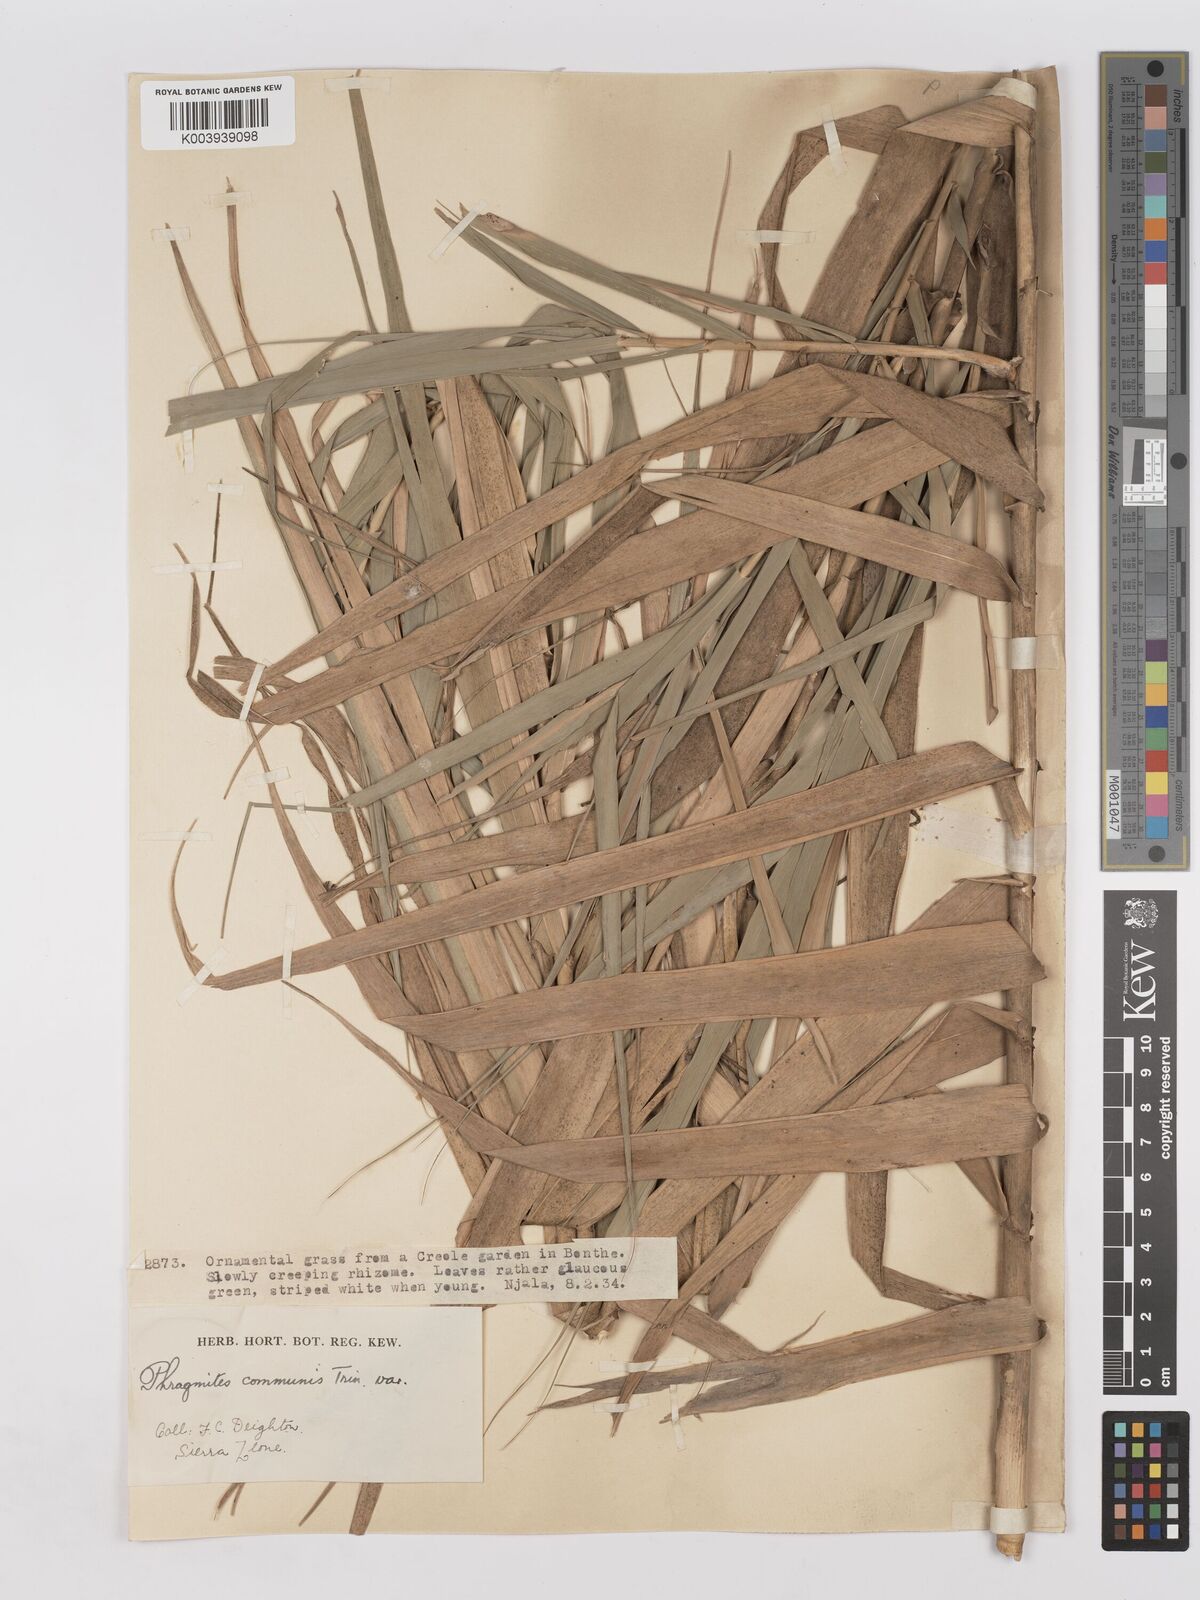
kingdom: Plantae
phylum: Tracheophyta
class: Liliopsida
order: Poales
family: Poaceae
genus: Phragmites
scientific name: Phragmites australis
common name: Common reed
